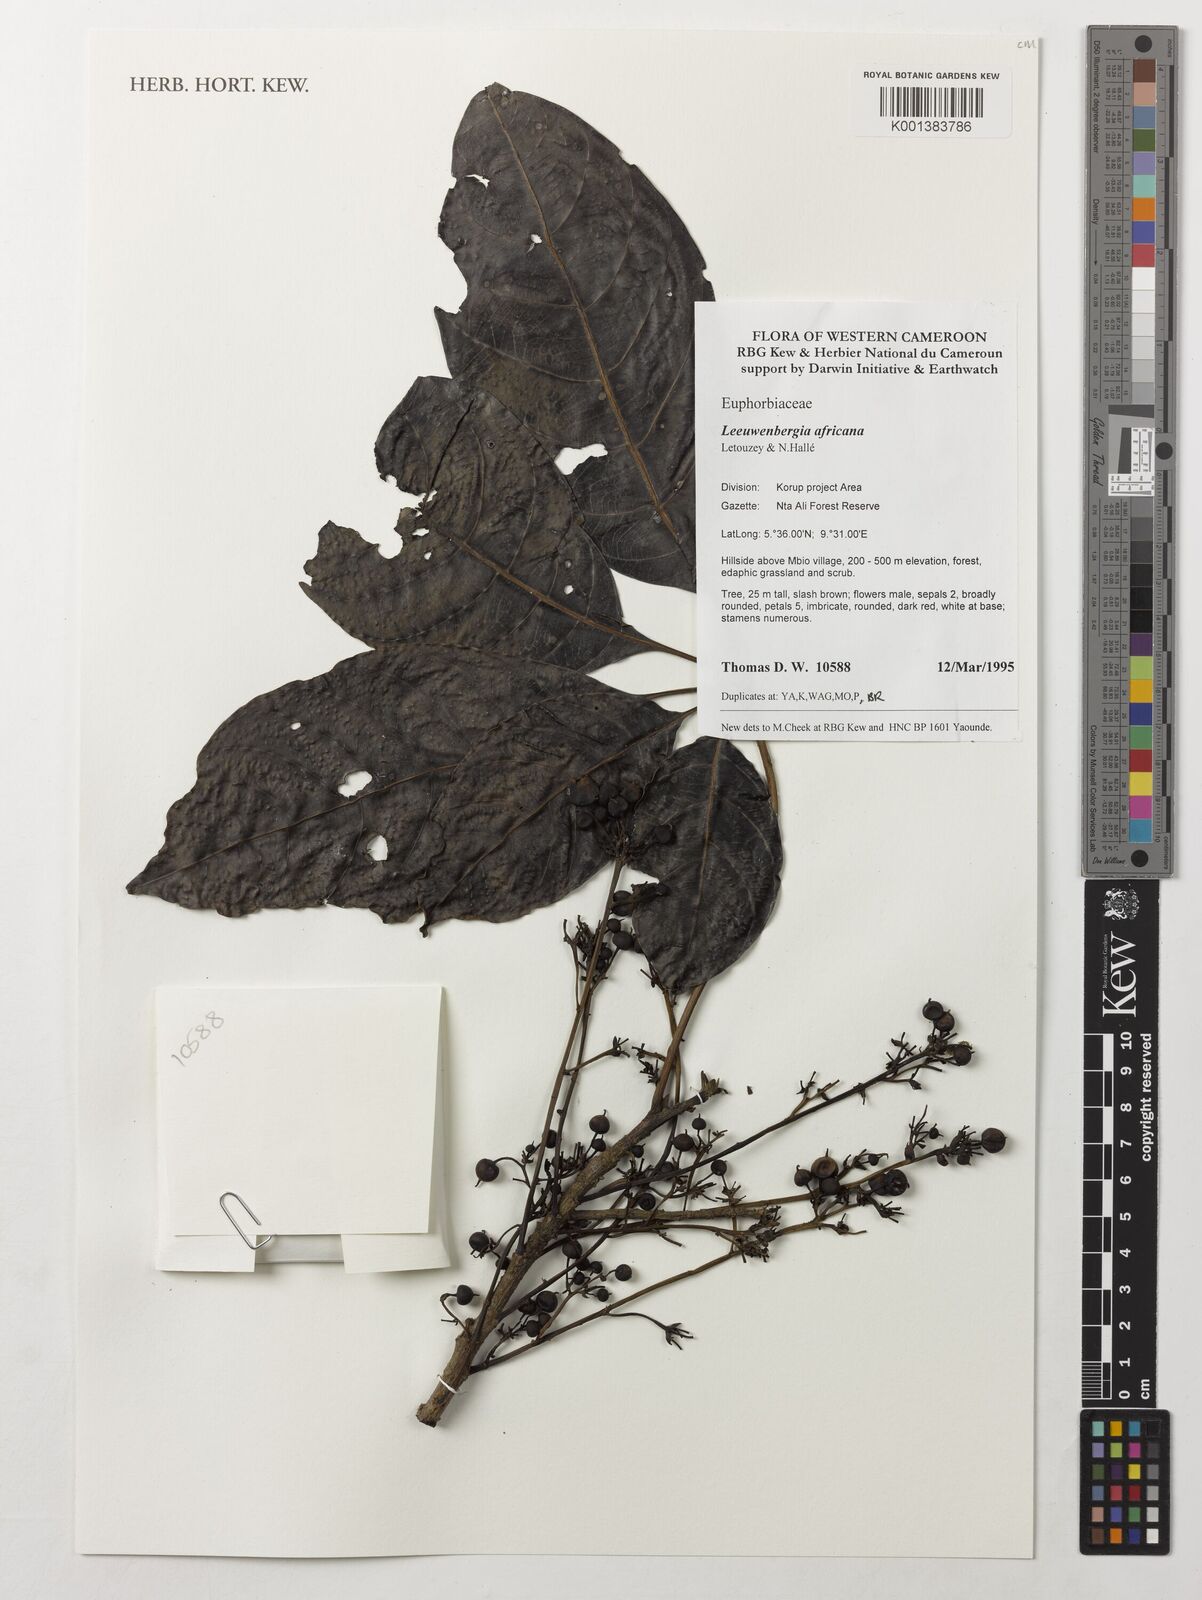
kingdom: Plantae
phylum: Tracheophyta
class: Magnoliopsida
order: Malpighiales
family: Euphorbiaceae
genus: Leeuwenbergia
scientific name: Leeuwenbergia africana
